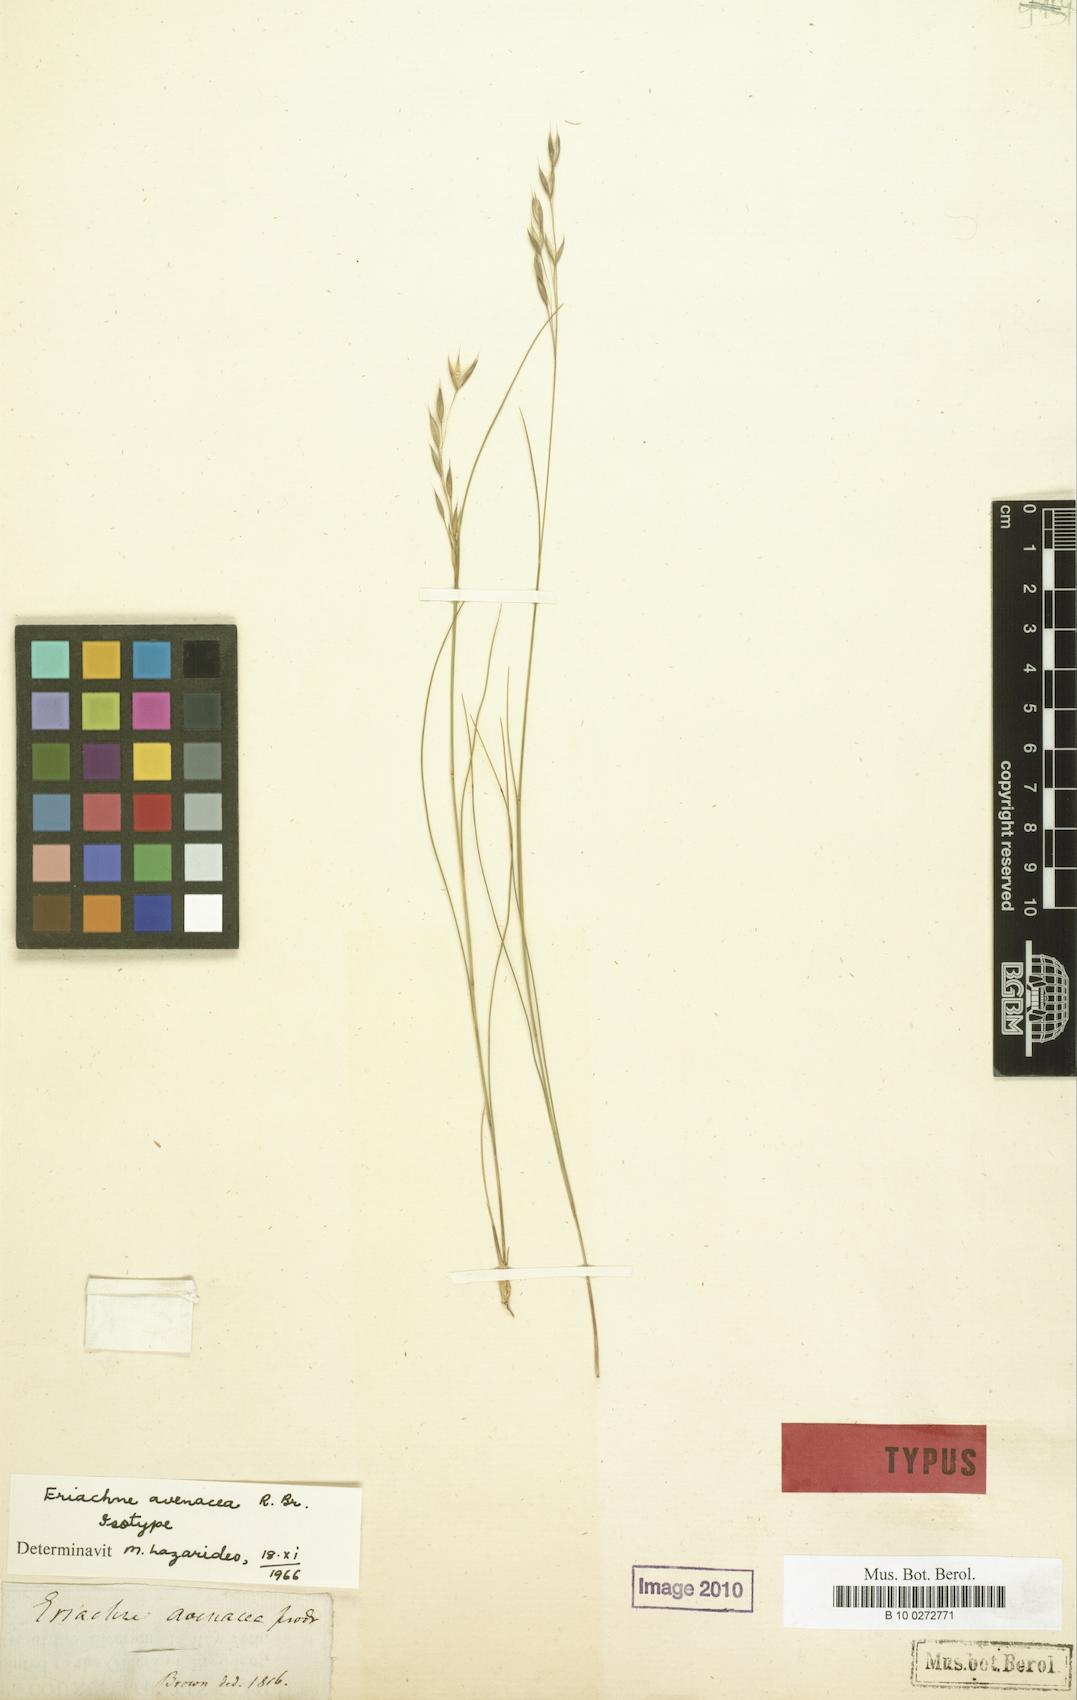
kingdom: Plantae
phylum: Tracheophyta
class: Liliopsida
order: Poales
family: Poaceae
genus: Eriachne
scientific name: Eriachne avenacea
